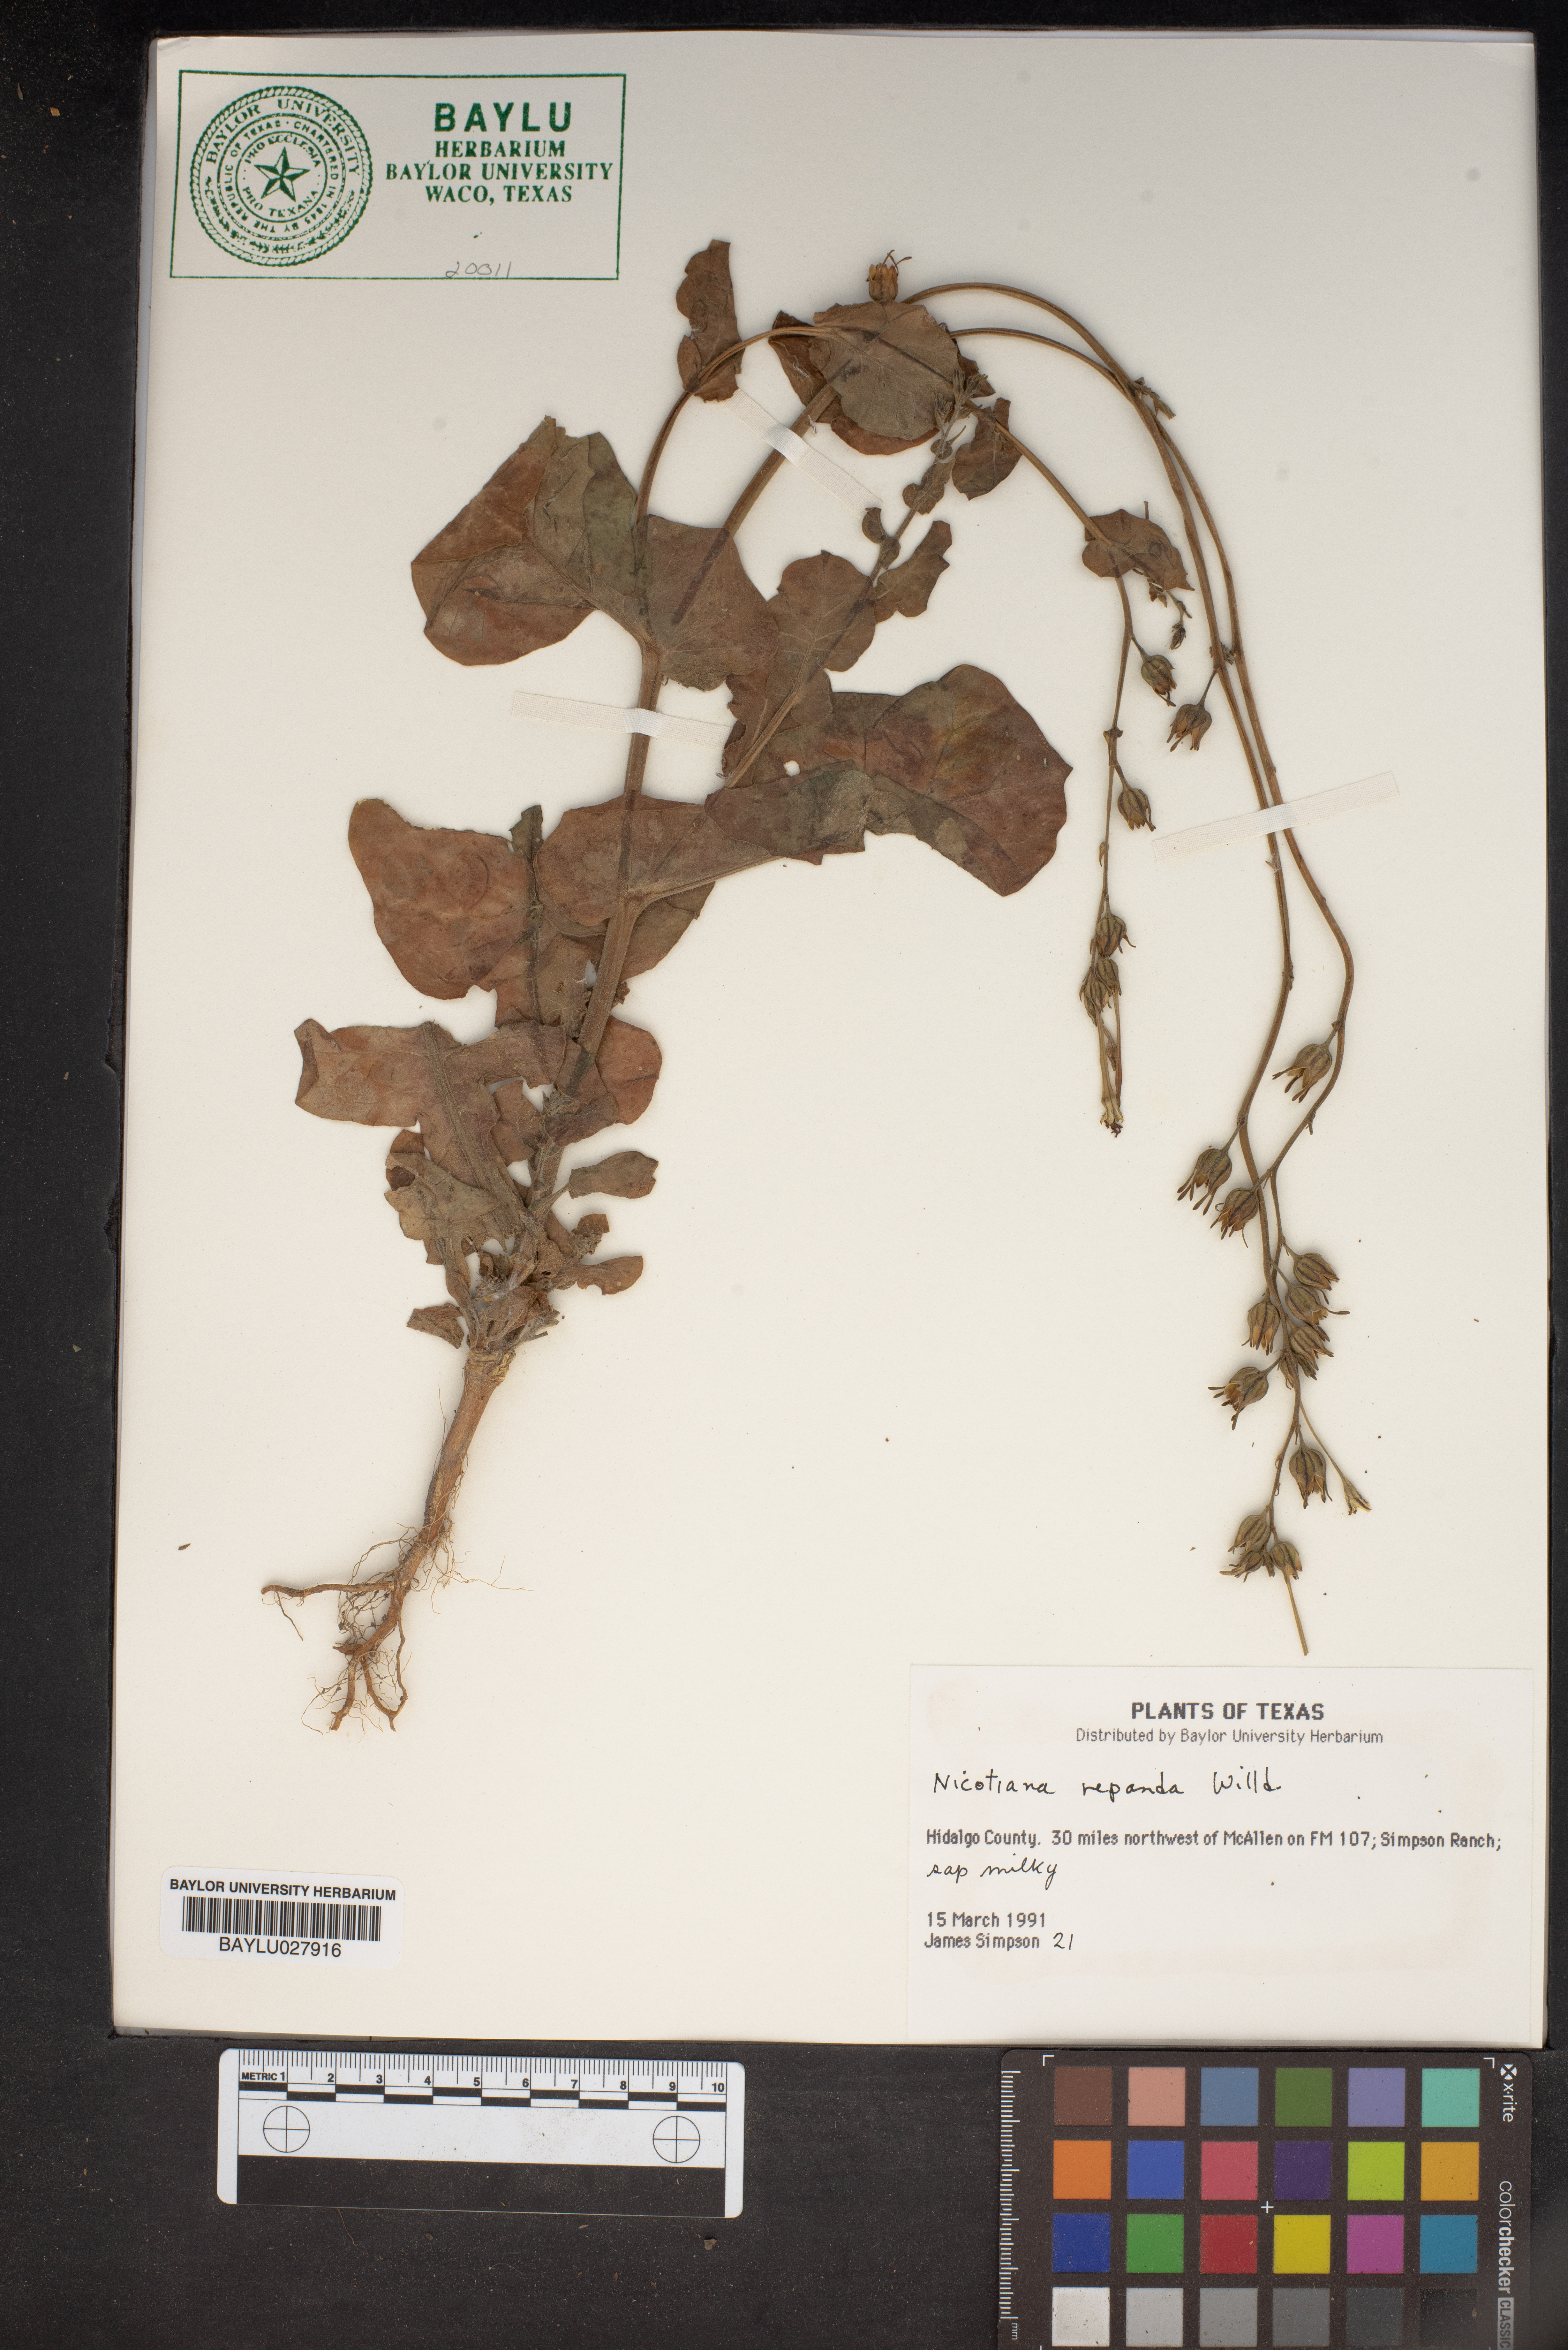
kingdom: Plantae
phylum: Tracheophyta
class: Magnoliopsida
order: Solanales
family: Solanaceae
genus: Nicotiana
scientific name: Nicotiana repanda
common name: Fiddle-leaf tobacco
